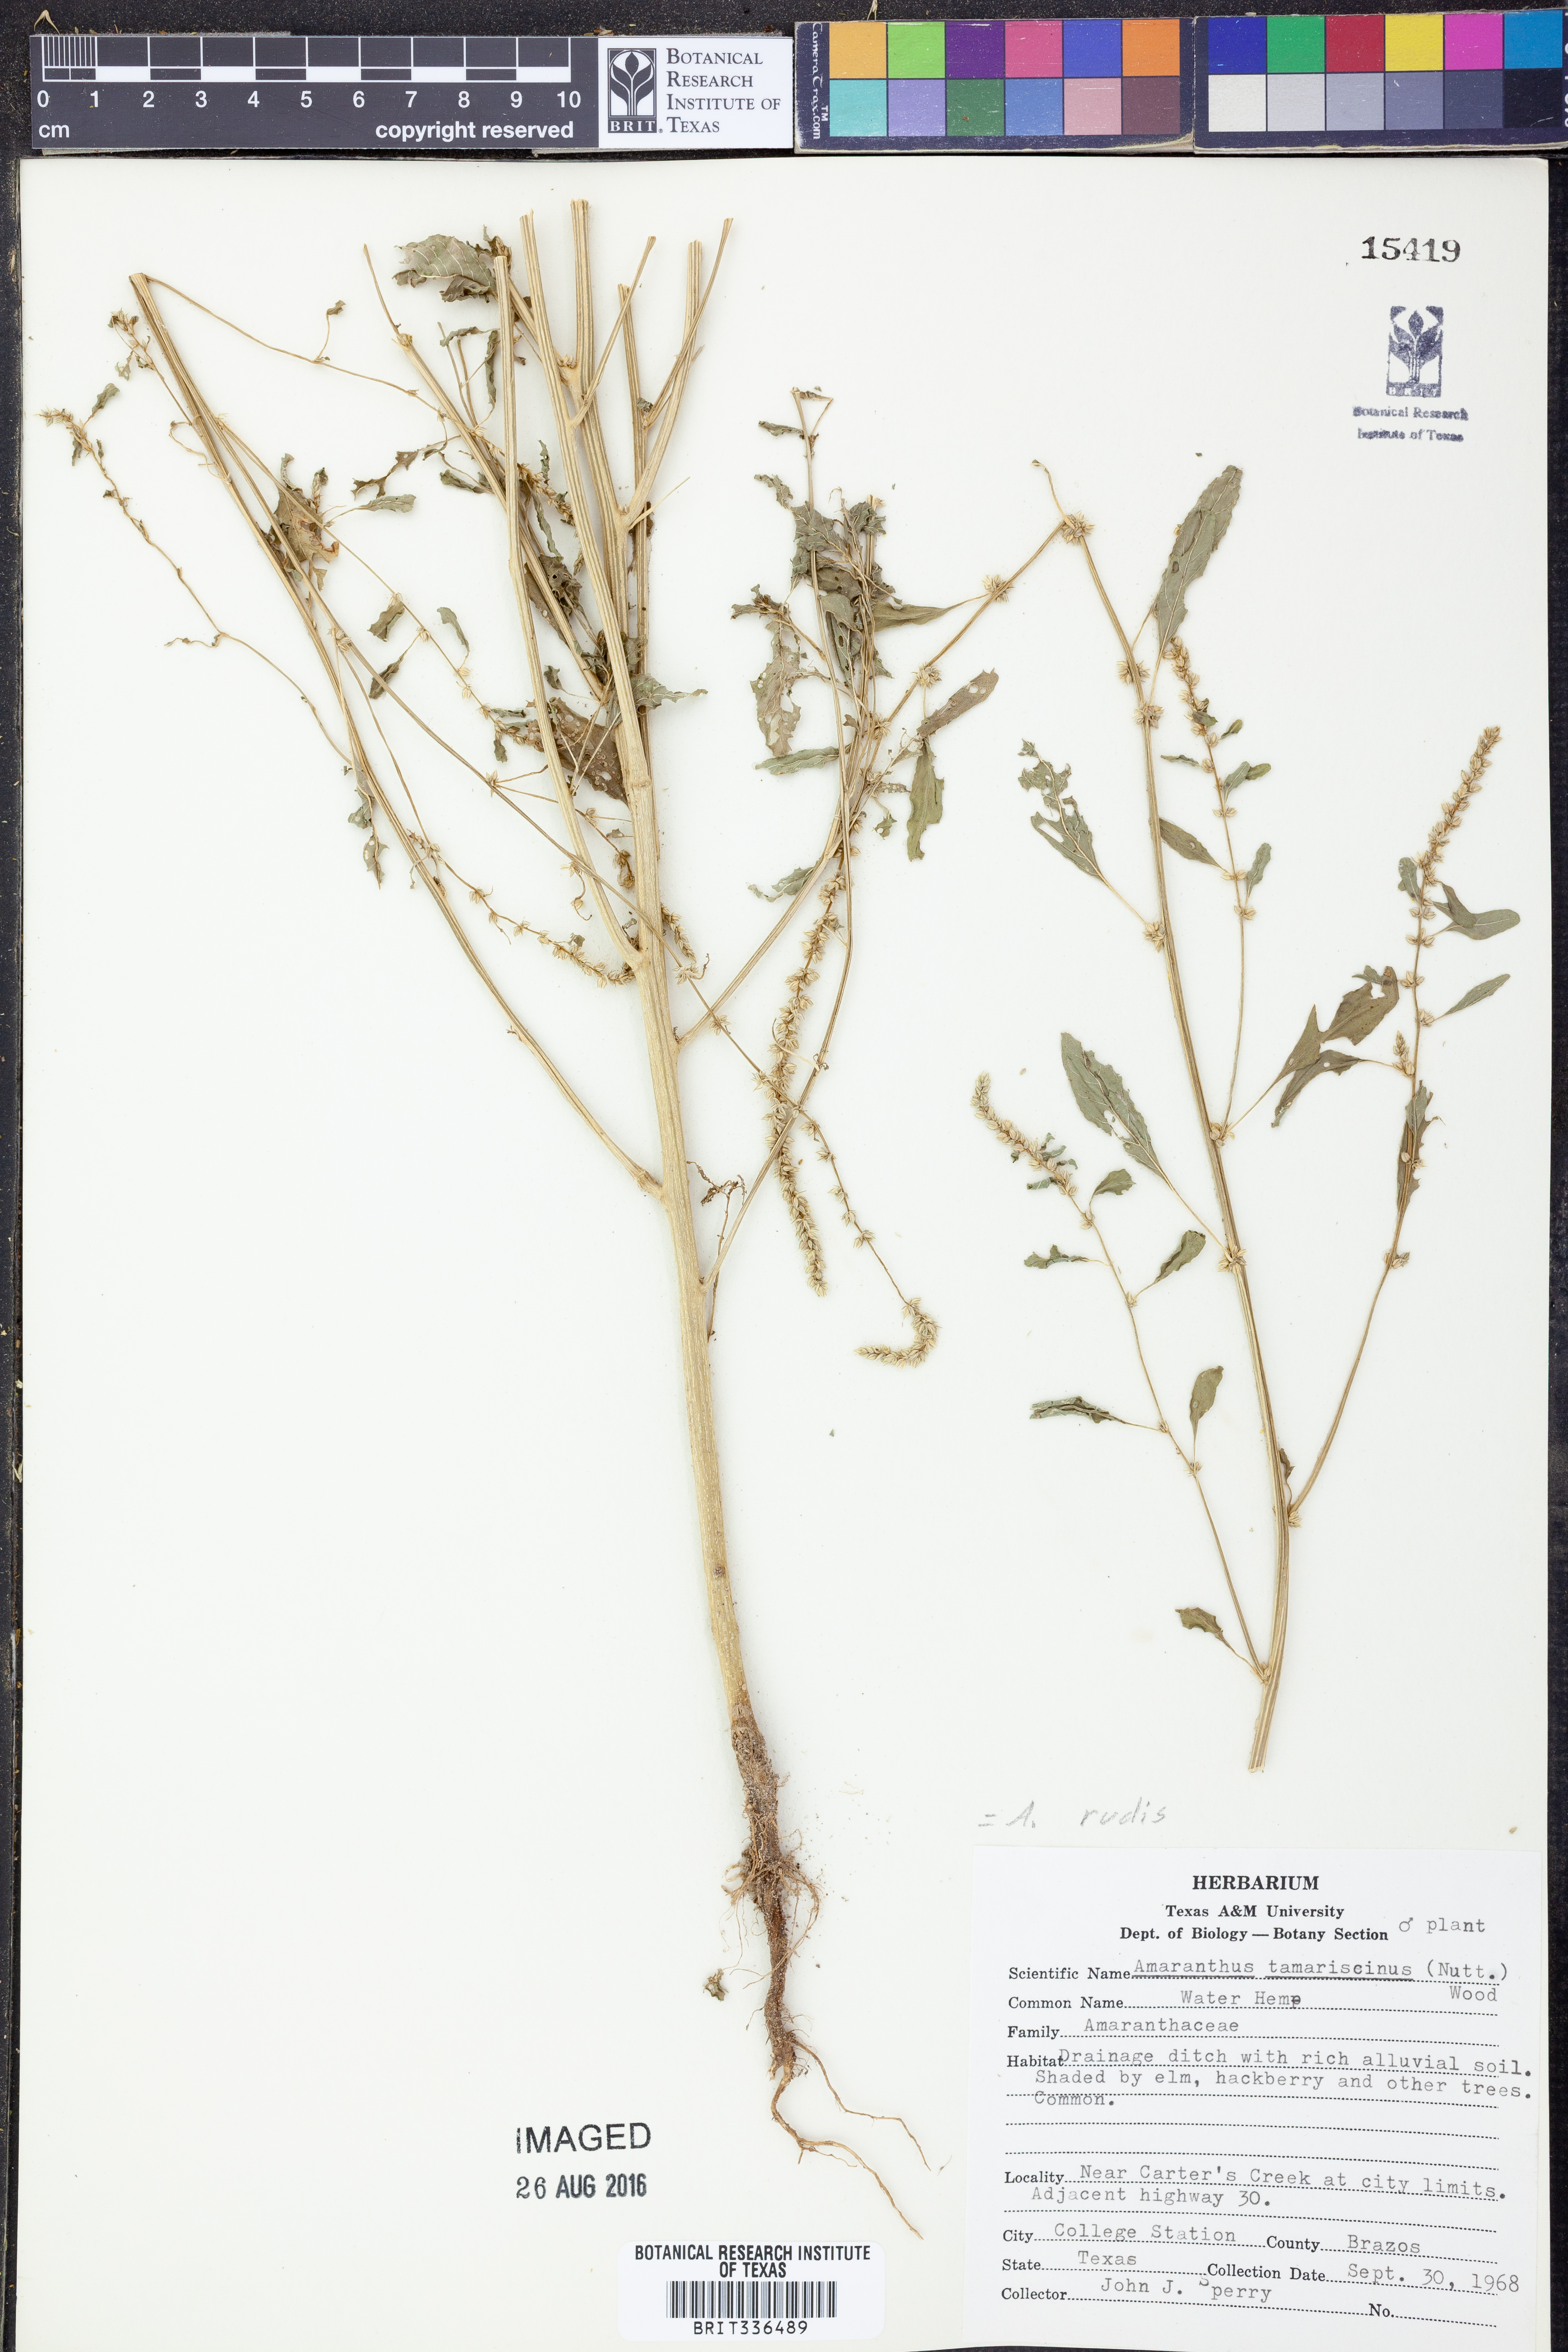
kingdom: Plantae
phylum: Tracheophyta
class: Magnoliopsida
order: Caryophyllales
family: Amaranthaceae
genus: Amaranthus
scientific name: Amaranthus tuberculatus
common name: Rough-fruit amaranth
